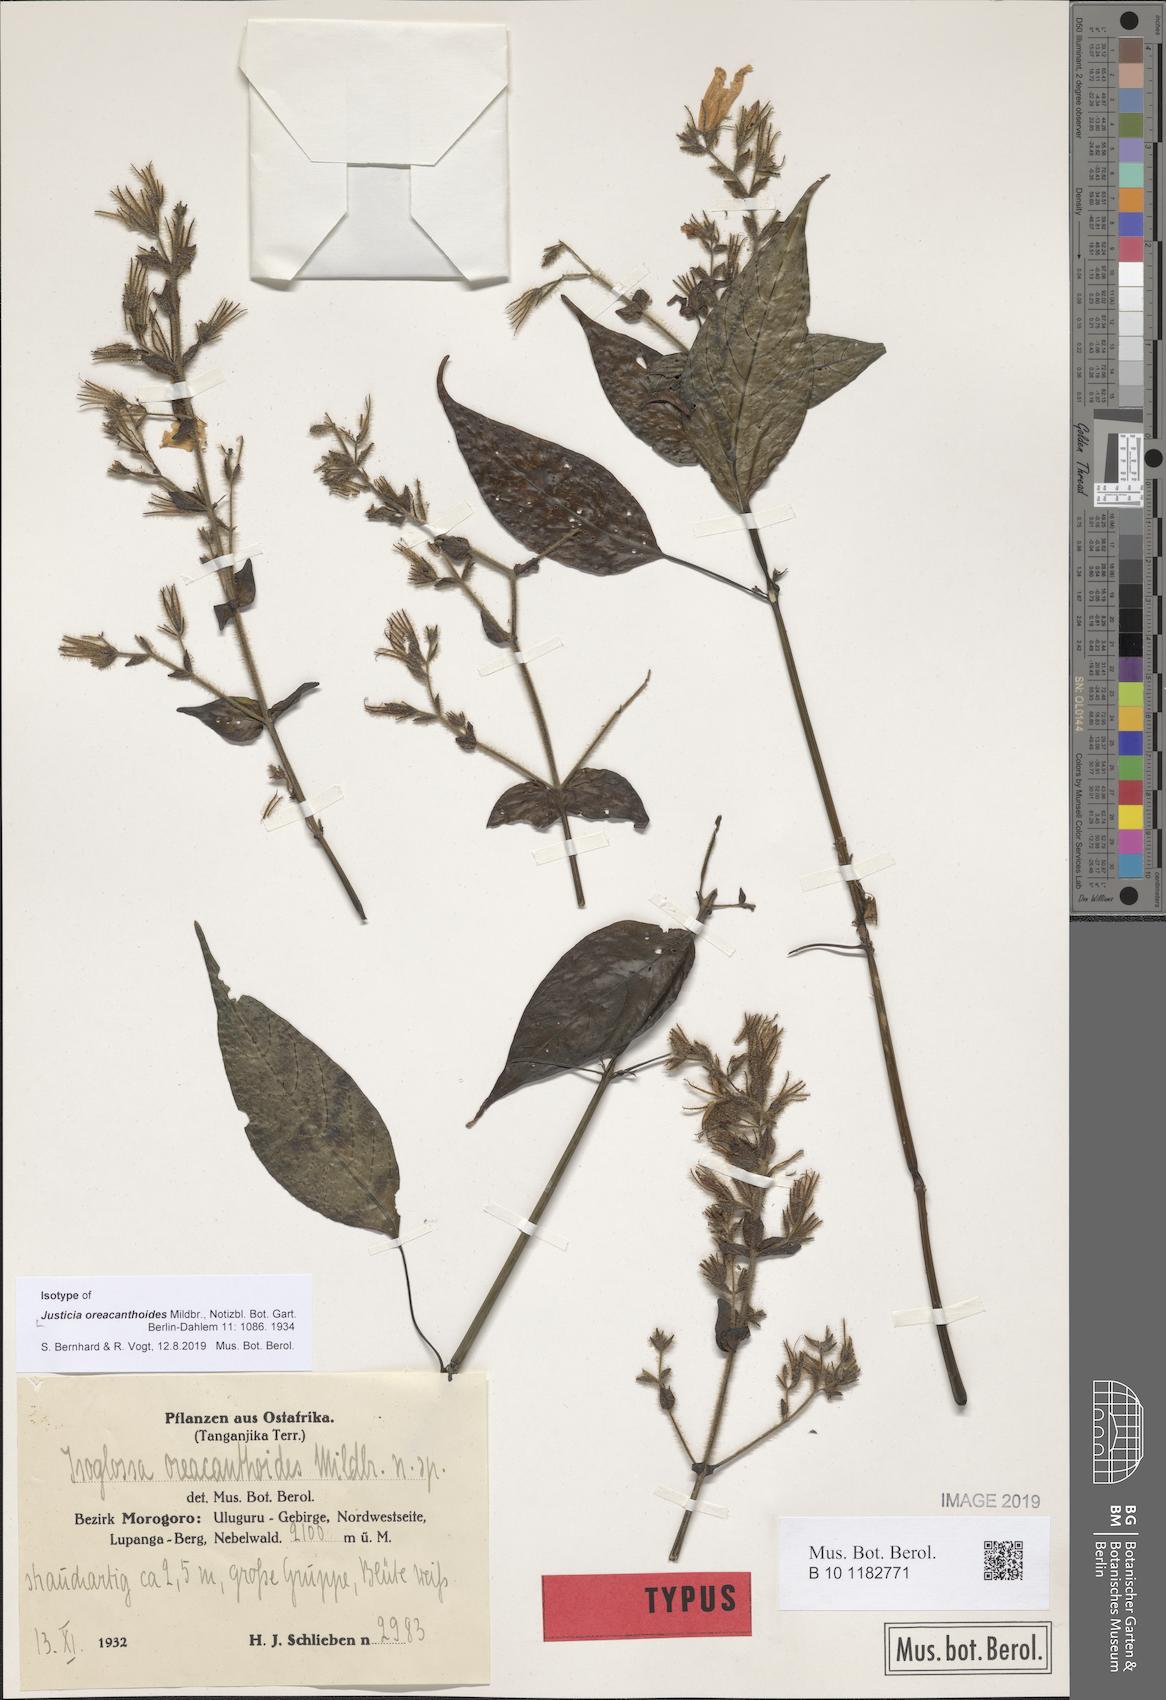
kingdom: Plantae
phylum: Tracheophyta
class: Magnoliopsida
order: Lamiales
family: Acanthaceae
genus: Isoglossa
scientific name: Isoglossa oreacanthoides
